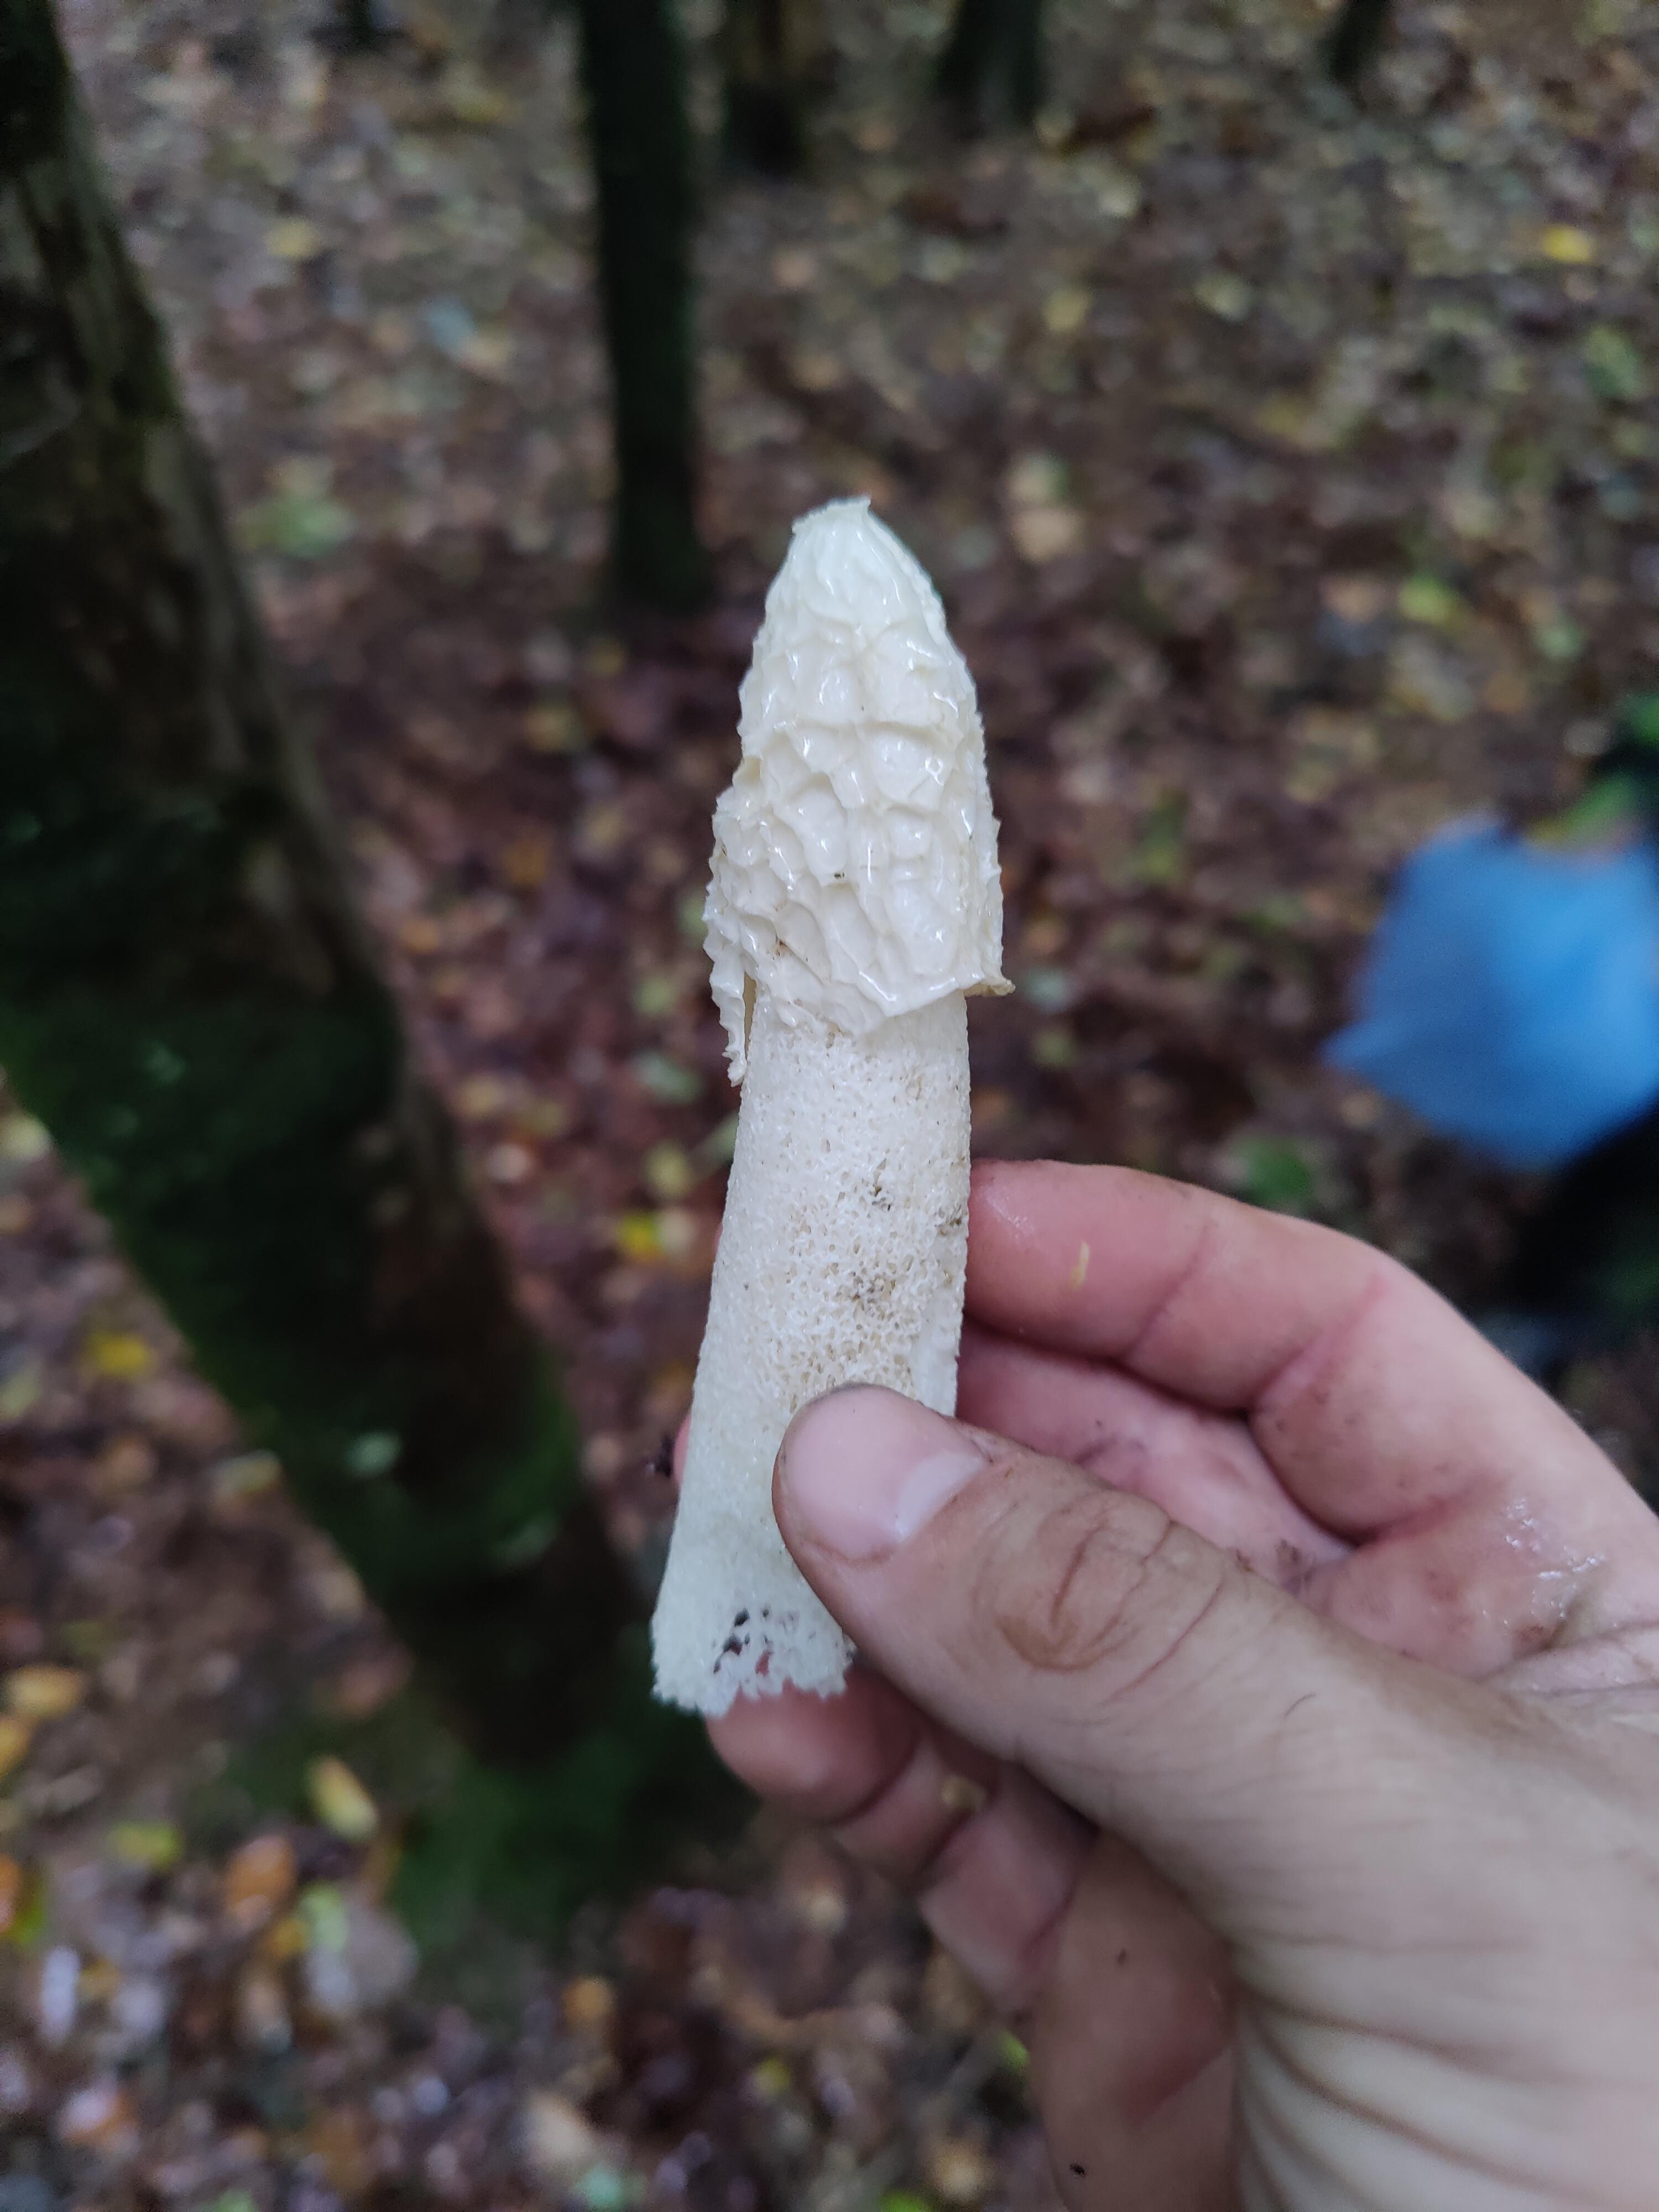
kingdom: Fungi
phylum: Basidiomycota
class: Agaricomycetes
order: Phallales
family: Phallaceae
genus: Phallus
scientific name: Phallus impudicus
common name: almindelig stinksvamp
